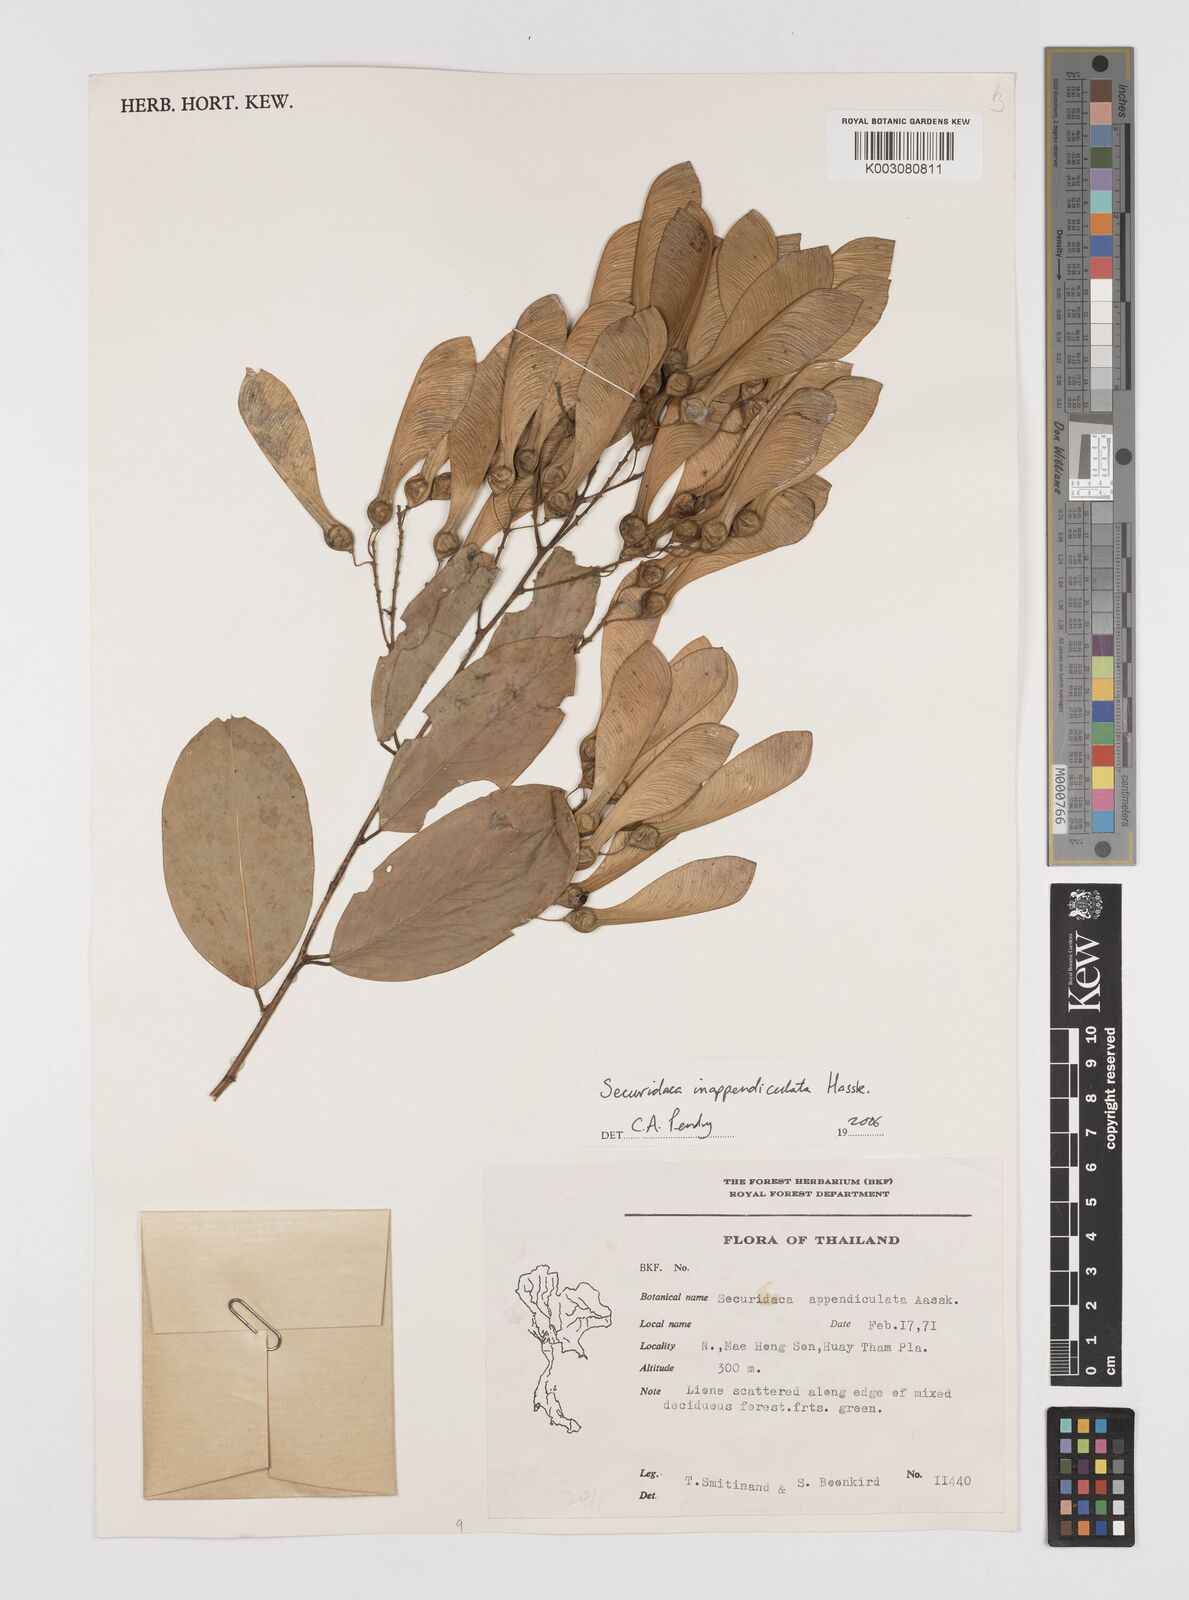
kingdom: Plantae
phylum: Tracheophyta
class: Magnoliopsida
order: Fabales
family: Polygalaceae
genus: Securidaca
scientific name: Securidaca inappendiculata
